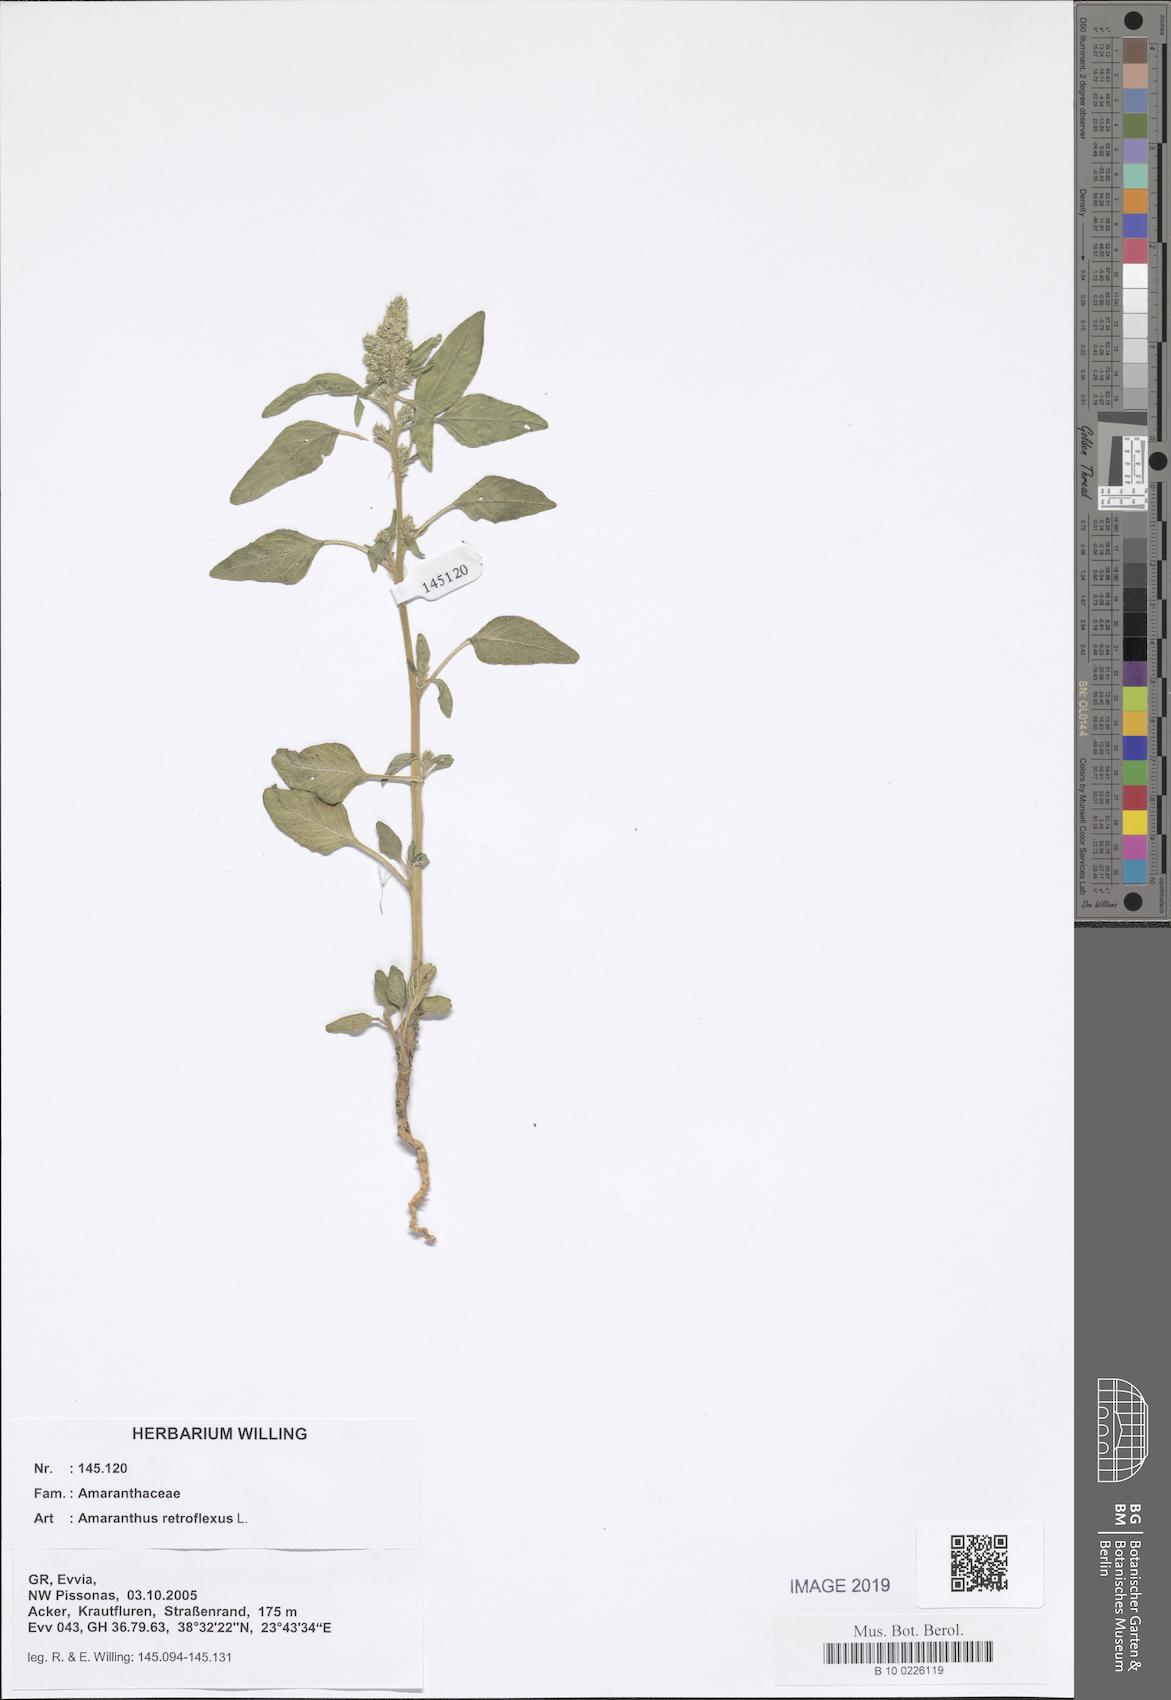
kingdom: Plantae
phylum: Tracheophyta
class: Magnoliopsida
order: Caryophyllales
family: Amaranthaceae
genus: Amaranthus
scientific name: Amaranthus retroflexus
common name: Redroot amaranth
